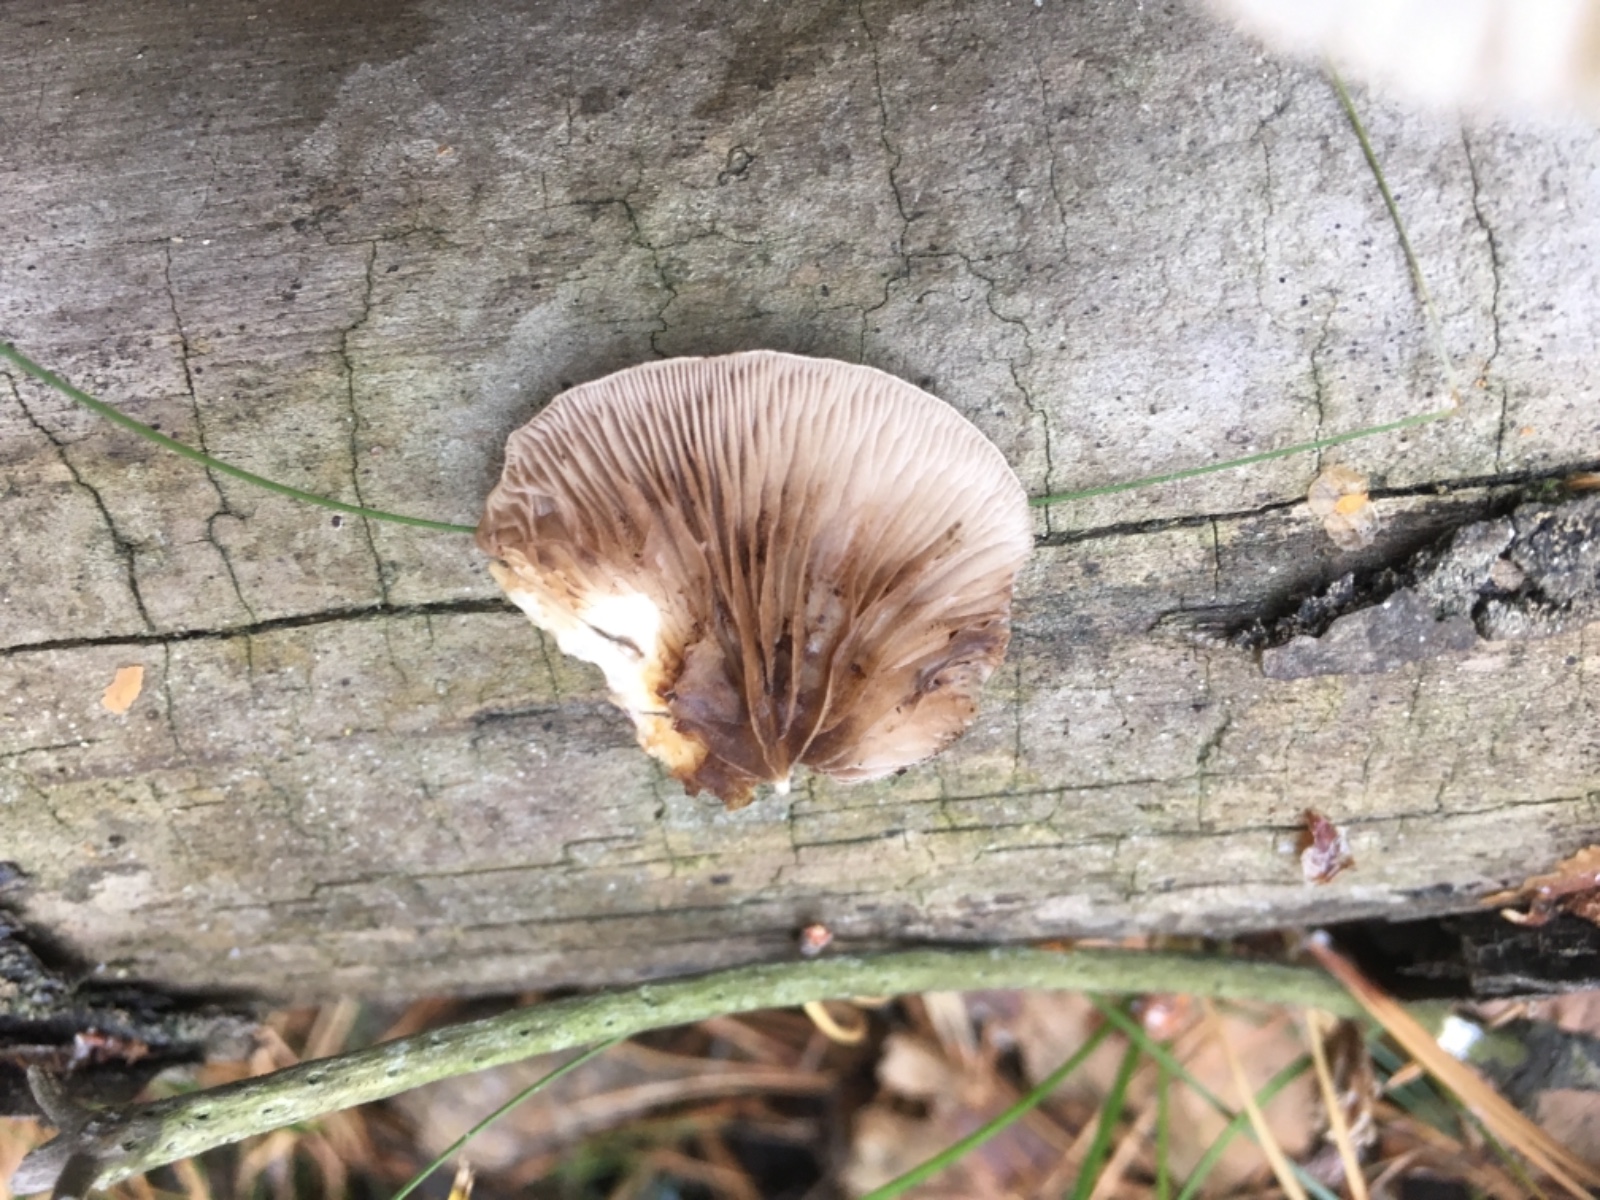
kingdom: Fungi
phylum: Basidiomycota
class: Agaricomycetes
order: Agaricales
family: Crepidotaceae
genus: Crepidotus
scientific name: Crepidotus mollis
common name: blød muslingesvamp
